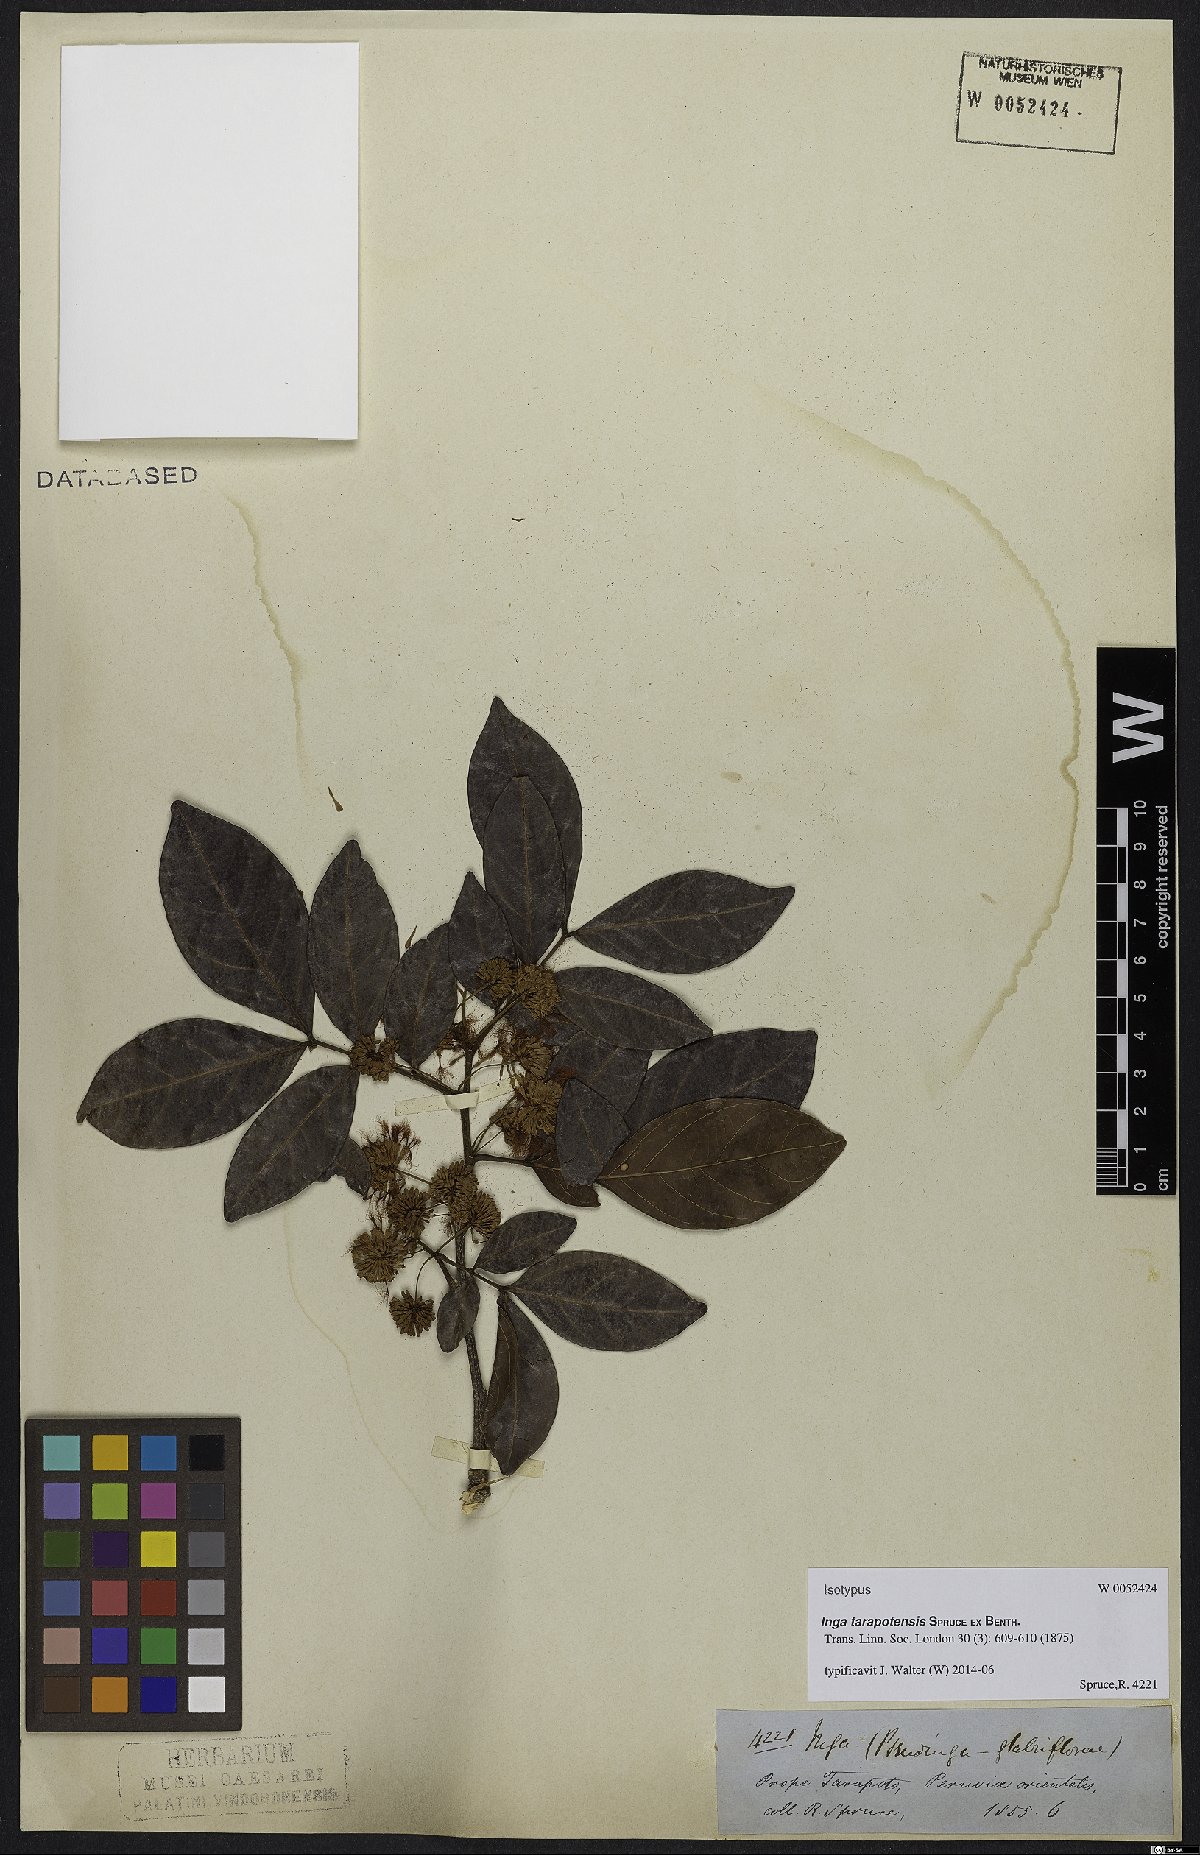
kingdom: Plantae
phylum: Tracheophyta
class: Magnoliopsida
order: Fabales
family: Fabaceae
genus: Inga
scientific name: Inga tarapotensis
